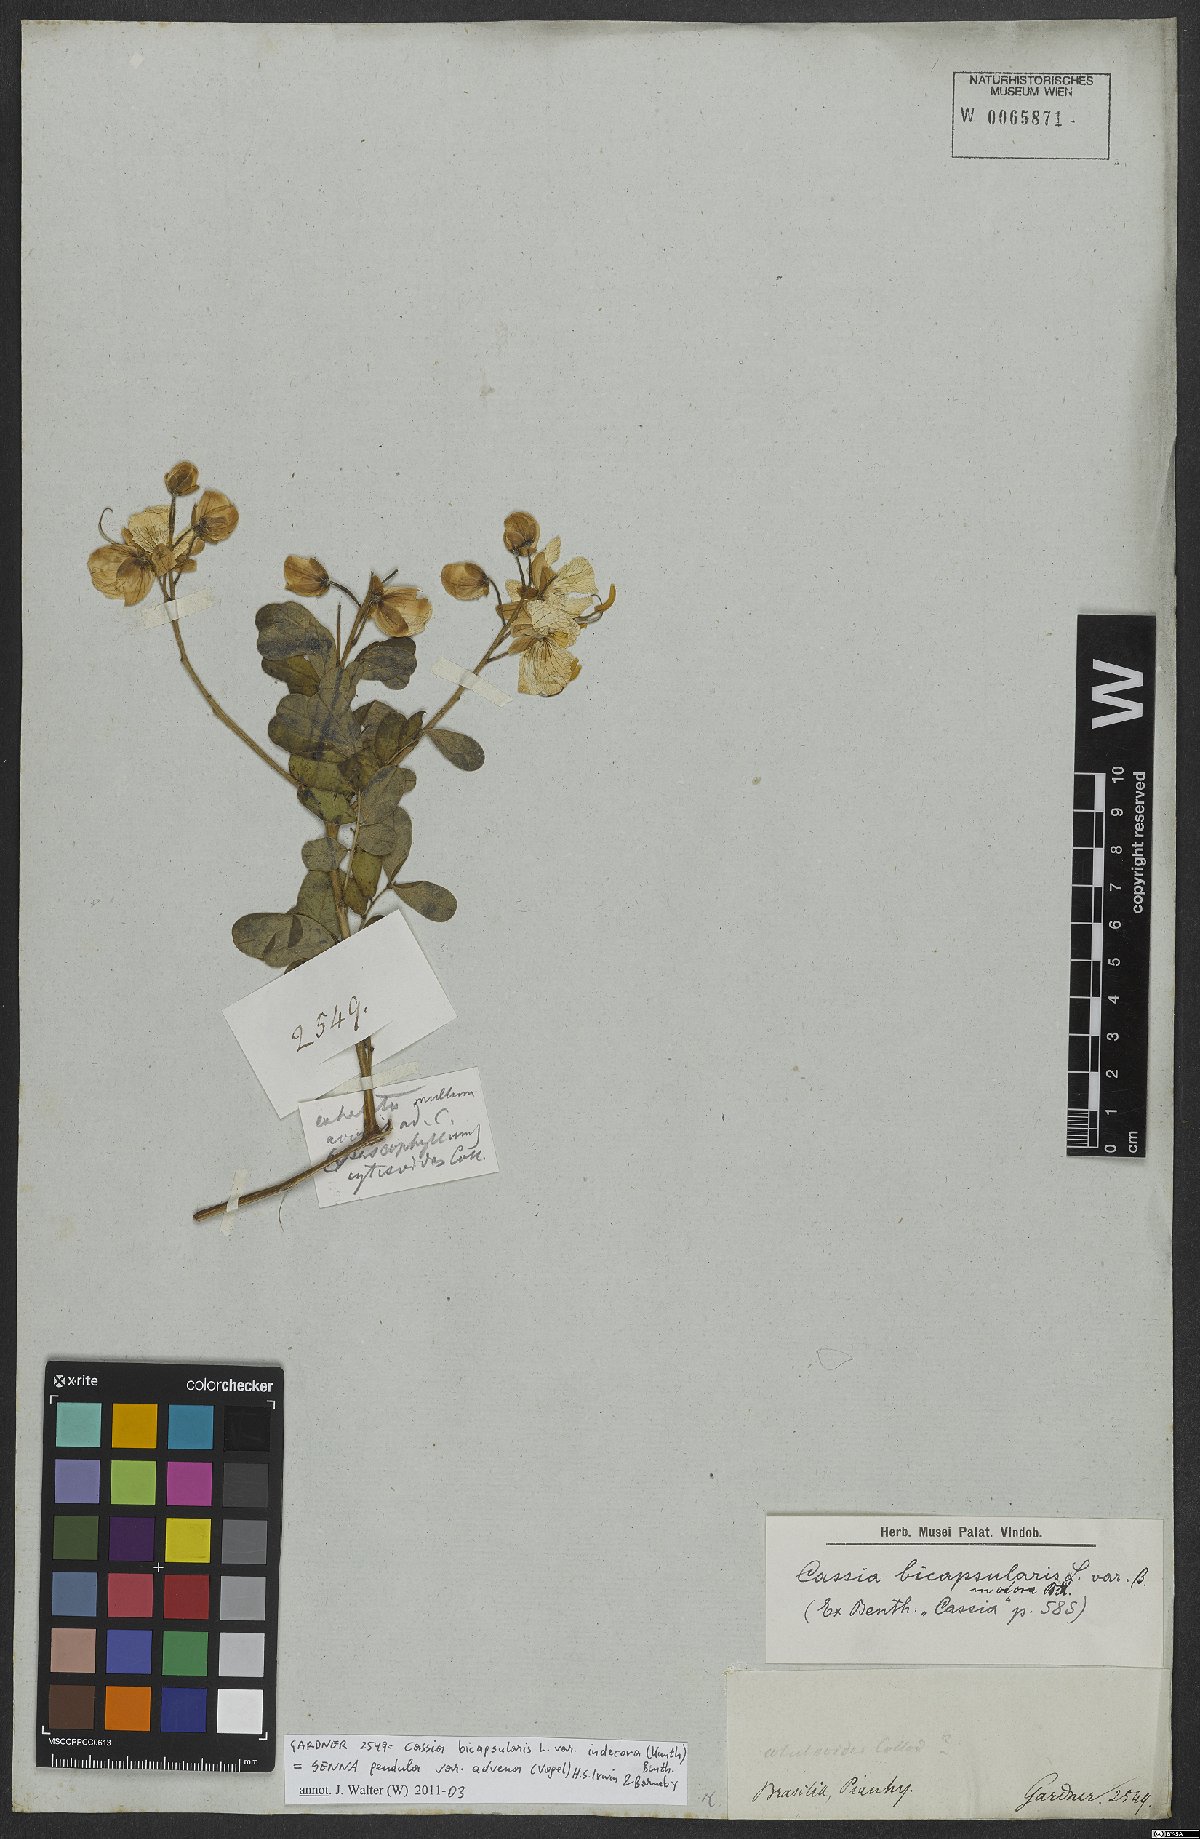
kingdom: Plantae
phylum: Tracheophyta
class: Magnoliopsida
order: Fabales
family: Fabaceae
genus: Senna
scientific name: Senna bicapsularis
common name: Christmasbush
